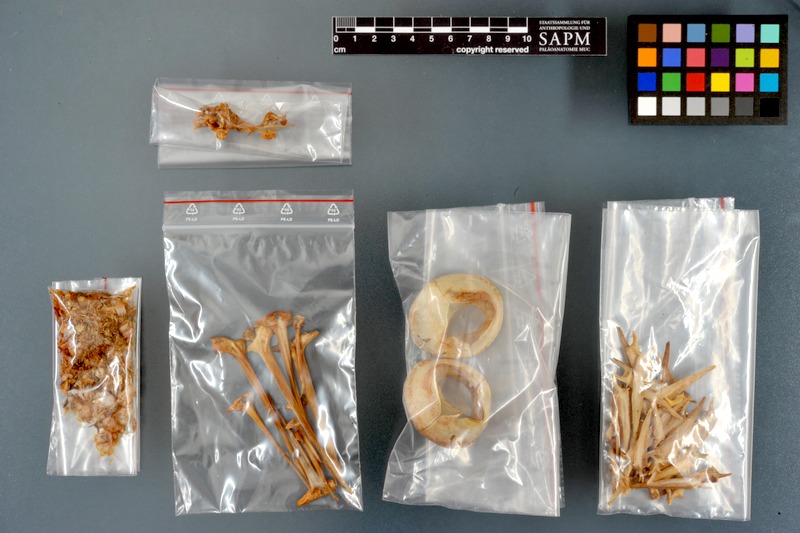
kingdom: Animalia
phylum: Chordata
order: Perciformes
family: Scombridae
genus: Thunnus
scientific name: Thunnus thynnus
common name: Bluefin tuna
